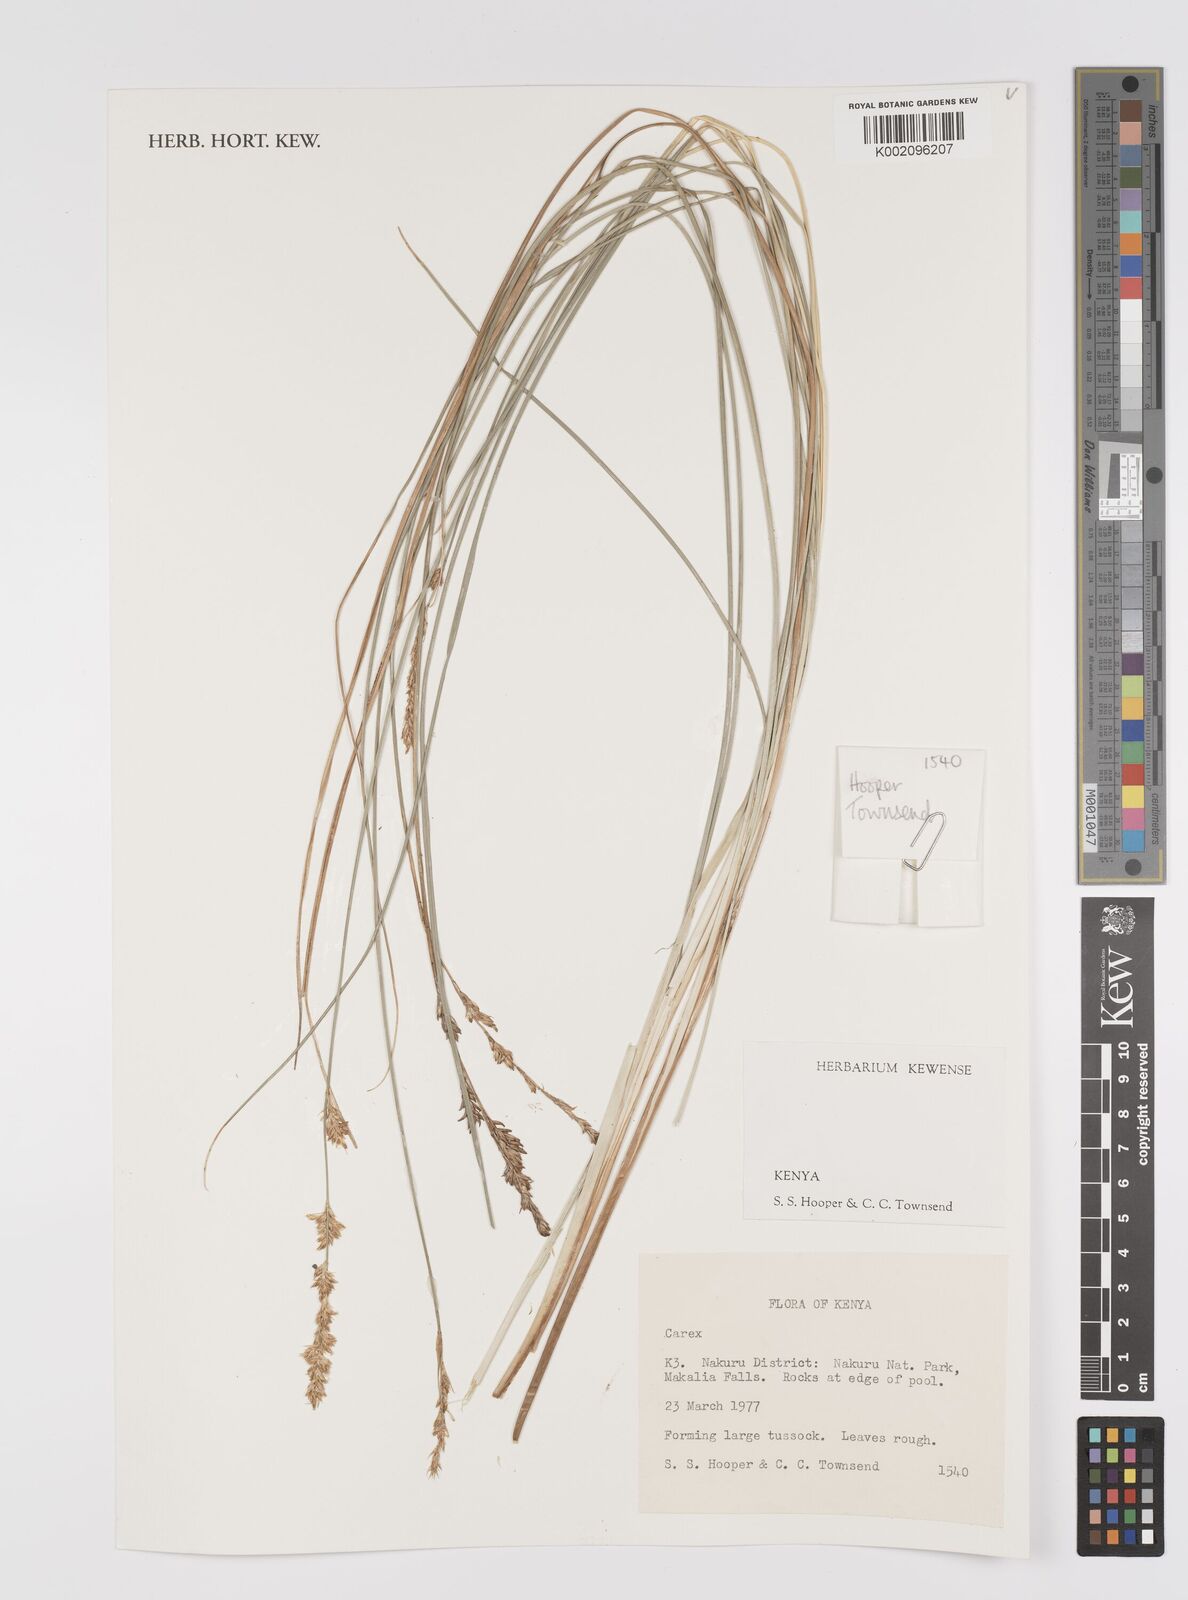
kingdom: Plantae
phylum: Tracheophyta
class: Liliopsida
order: Poales
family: Cyperaceae
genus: Carex
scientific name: Carex
